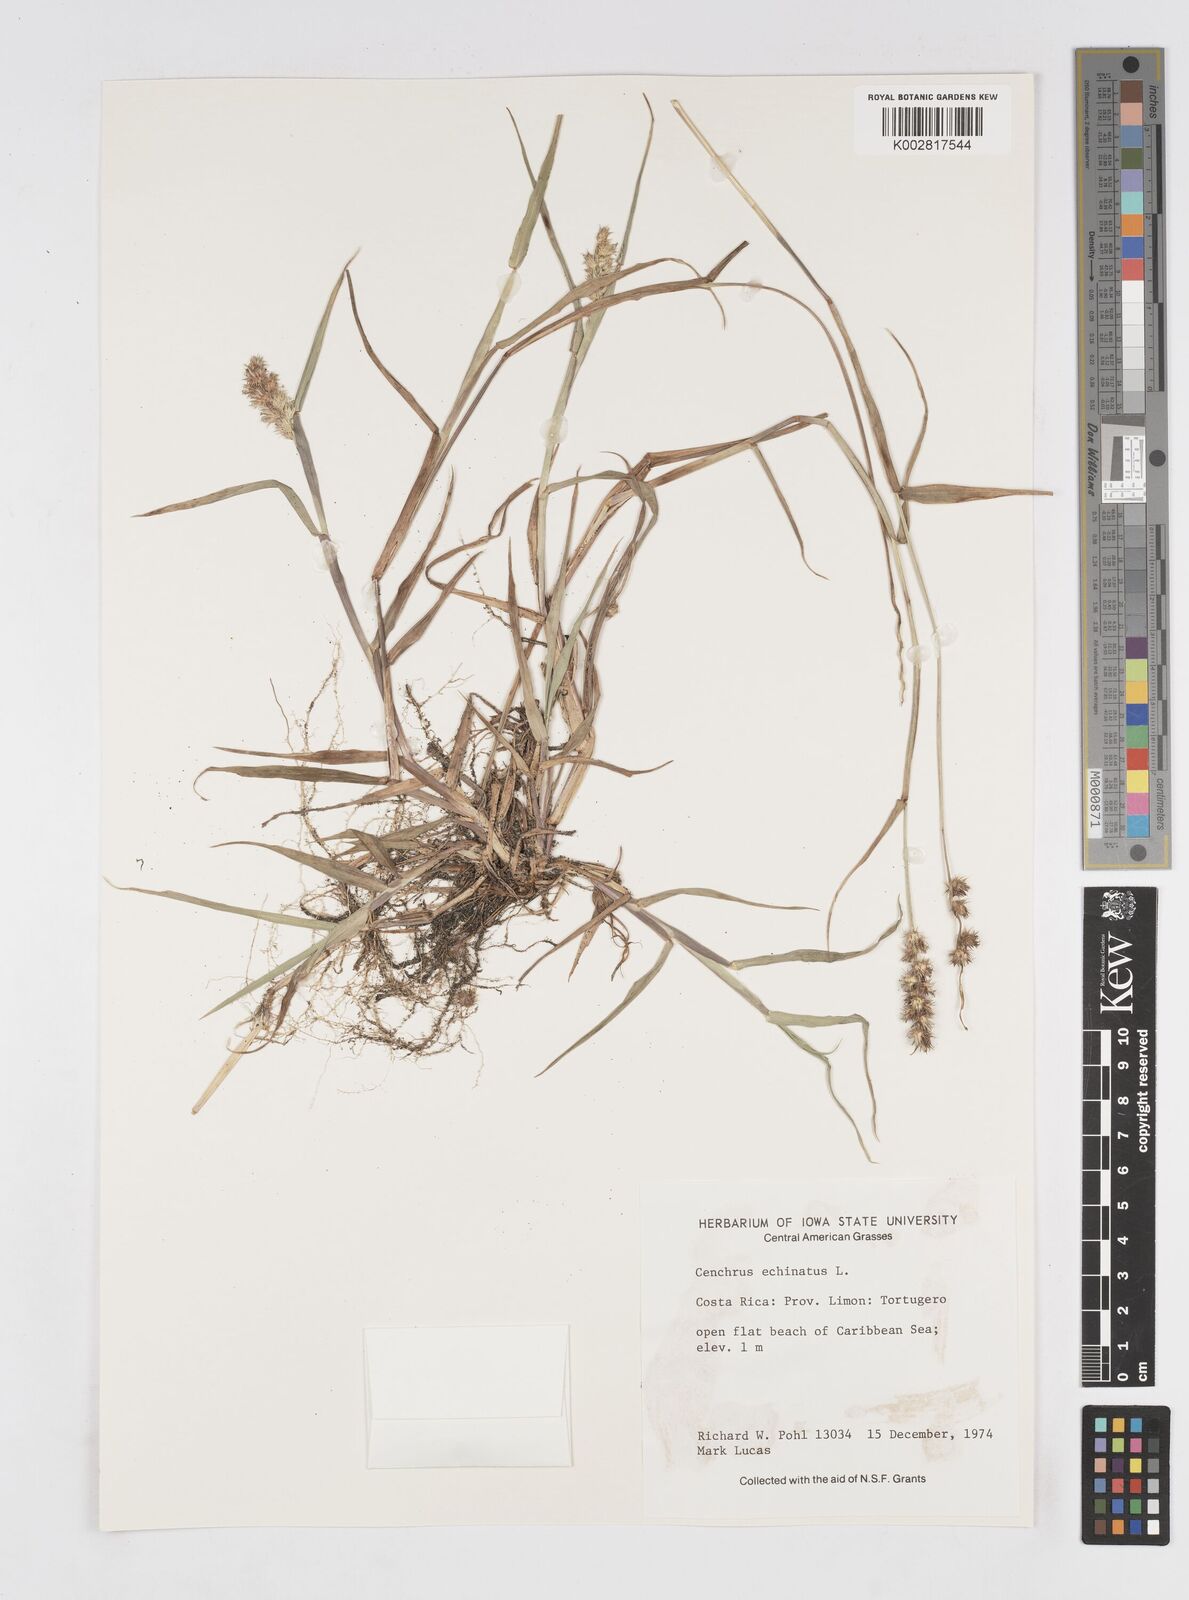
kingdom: Plantae
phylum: Tracheophyta
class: Liliopsida
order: Poales
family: Poaceae
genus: Cenchrus
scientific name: Cenchrus
